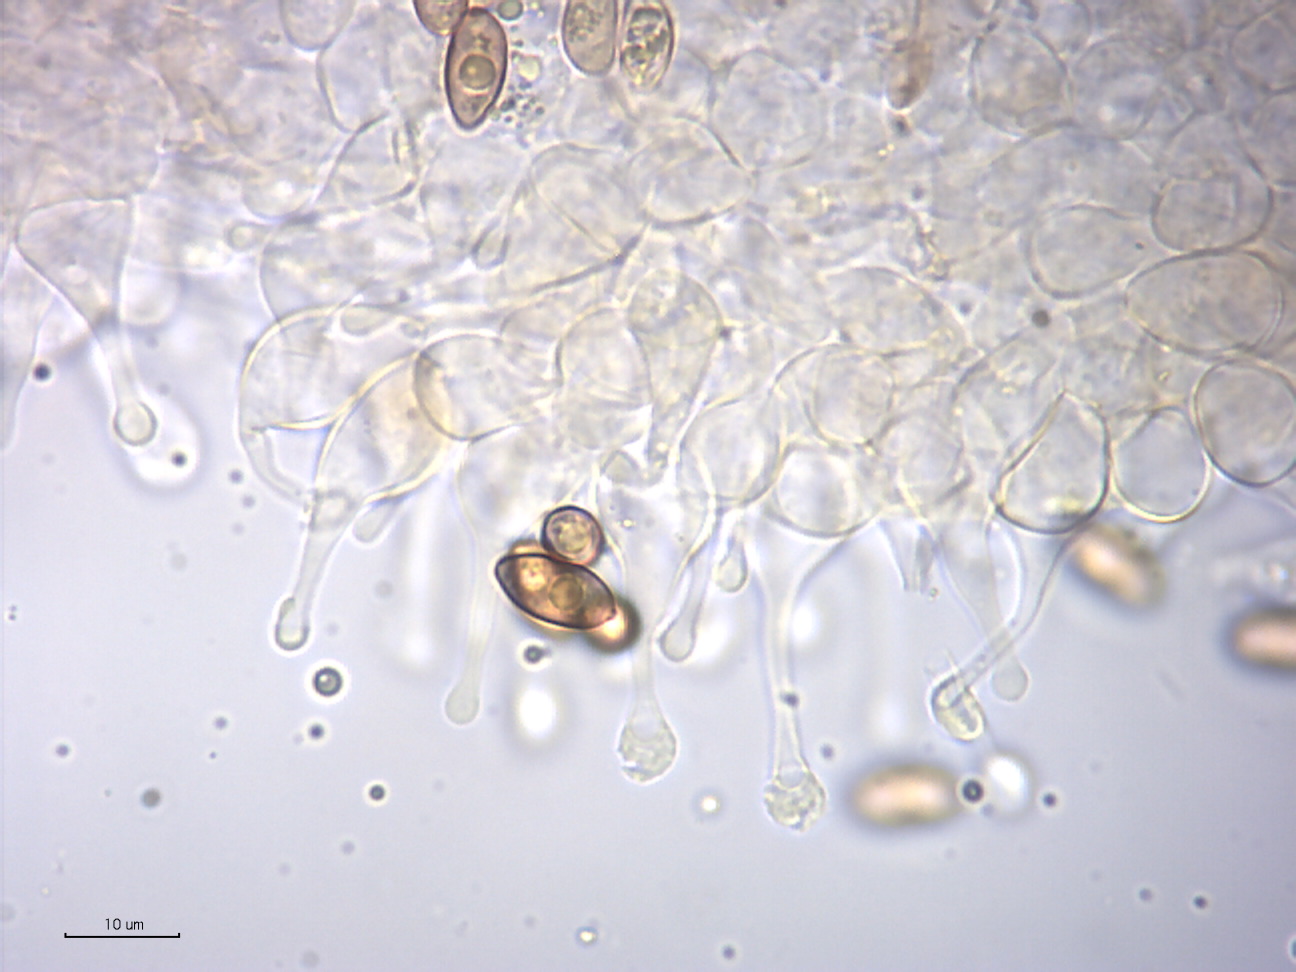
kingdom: Fungi
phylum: Basidiomycota
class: Agaricomycetes
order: Agaricales
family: Hymenogastraceae
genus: Galerina
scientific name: Galerina ampullaceocystis
